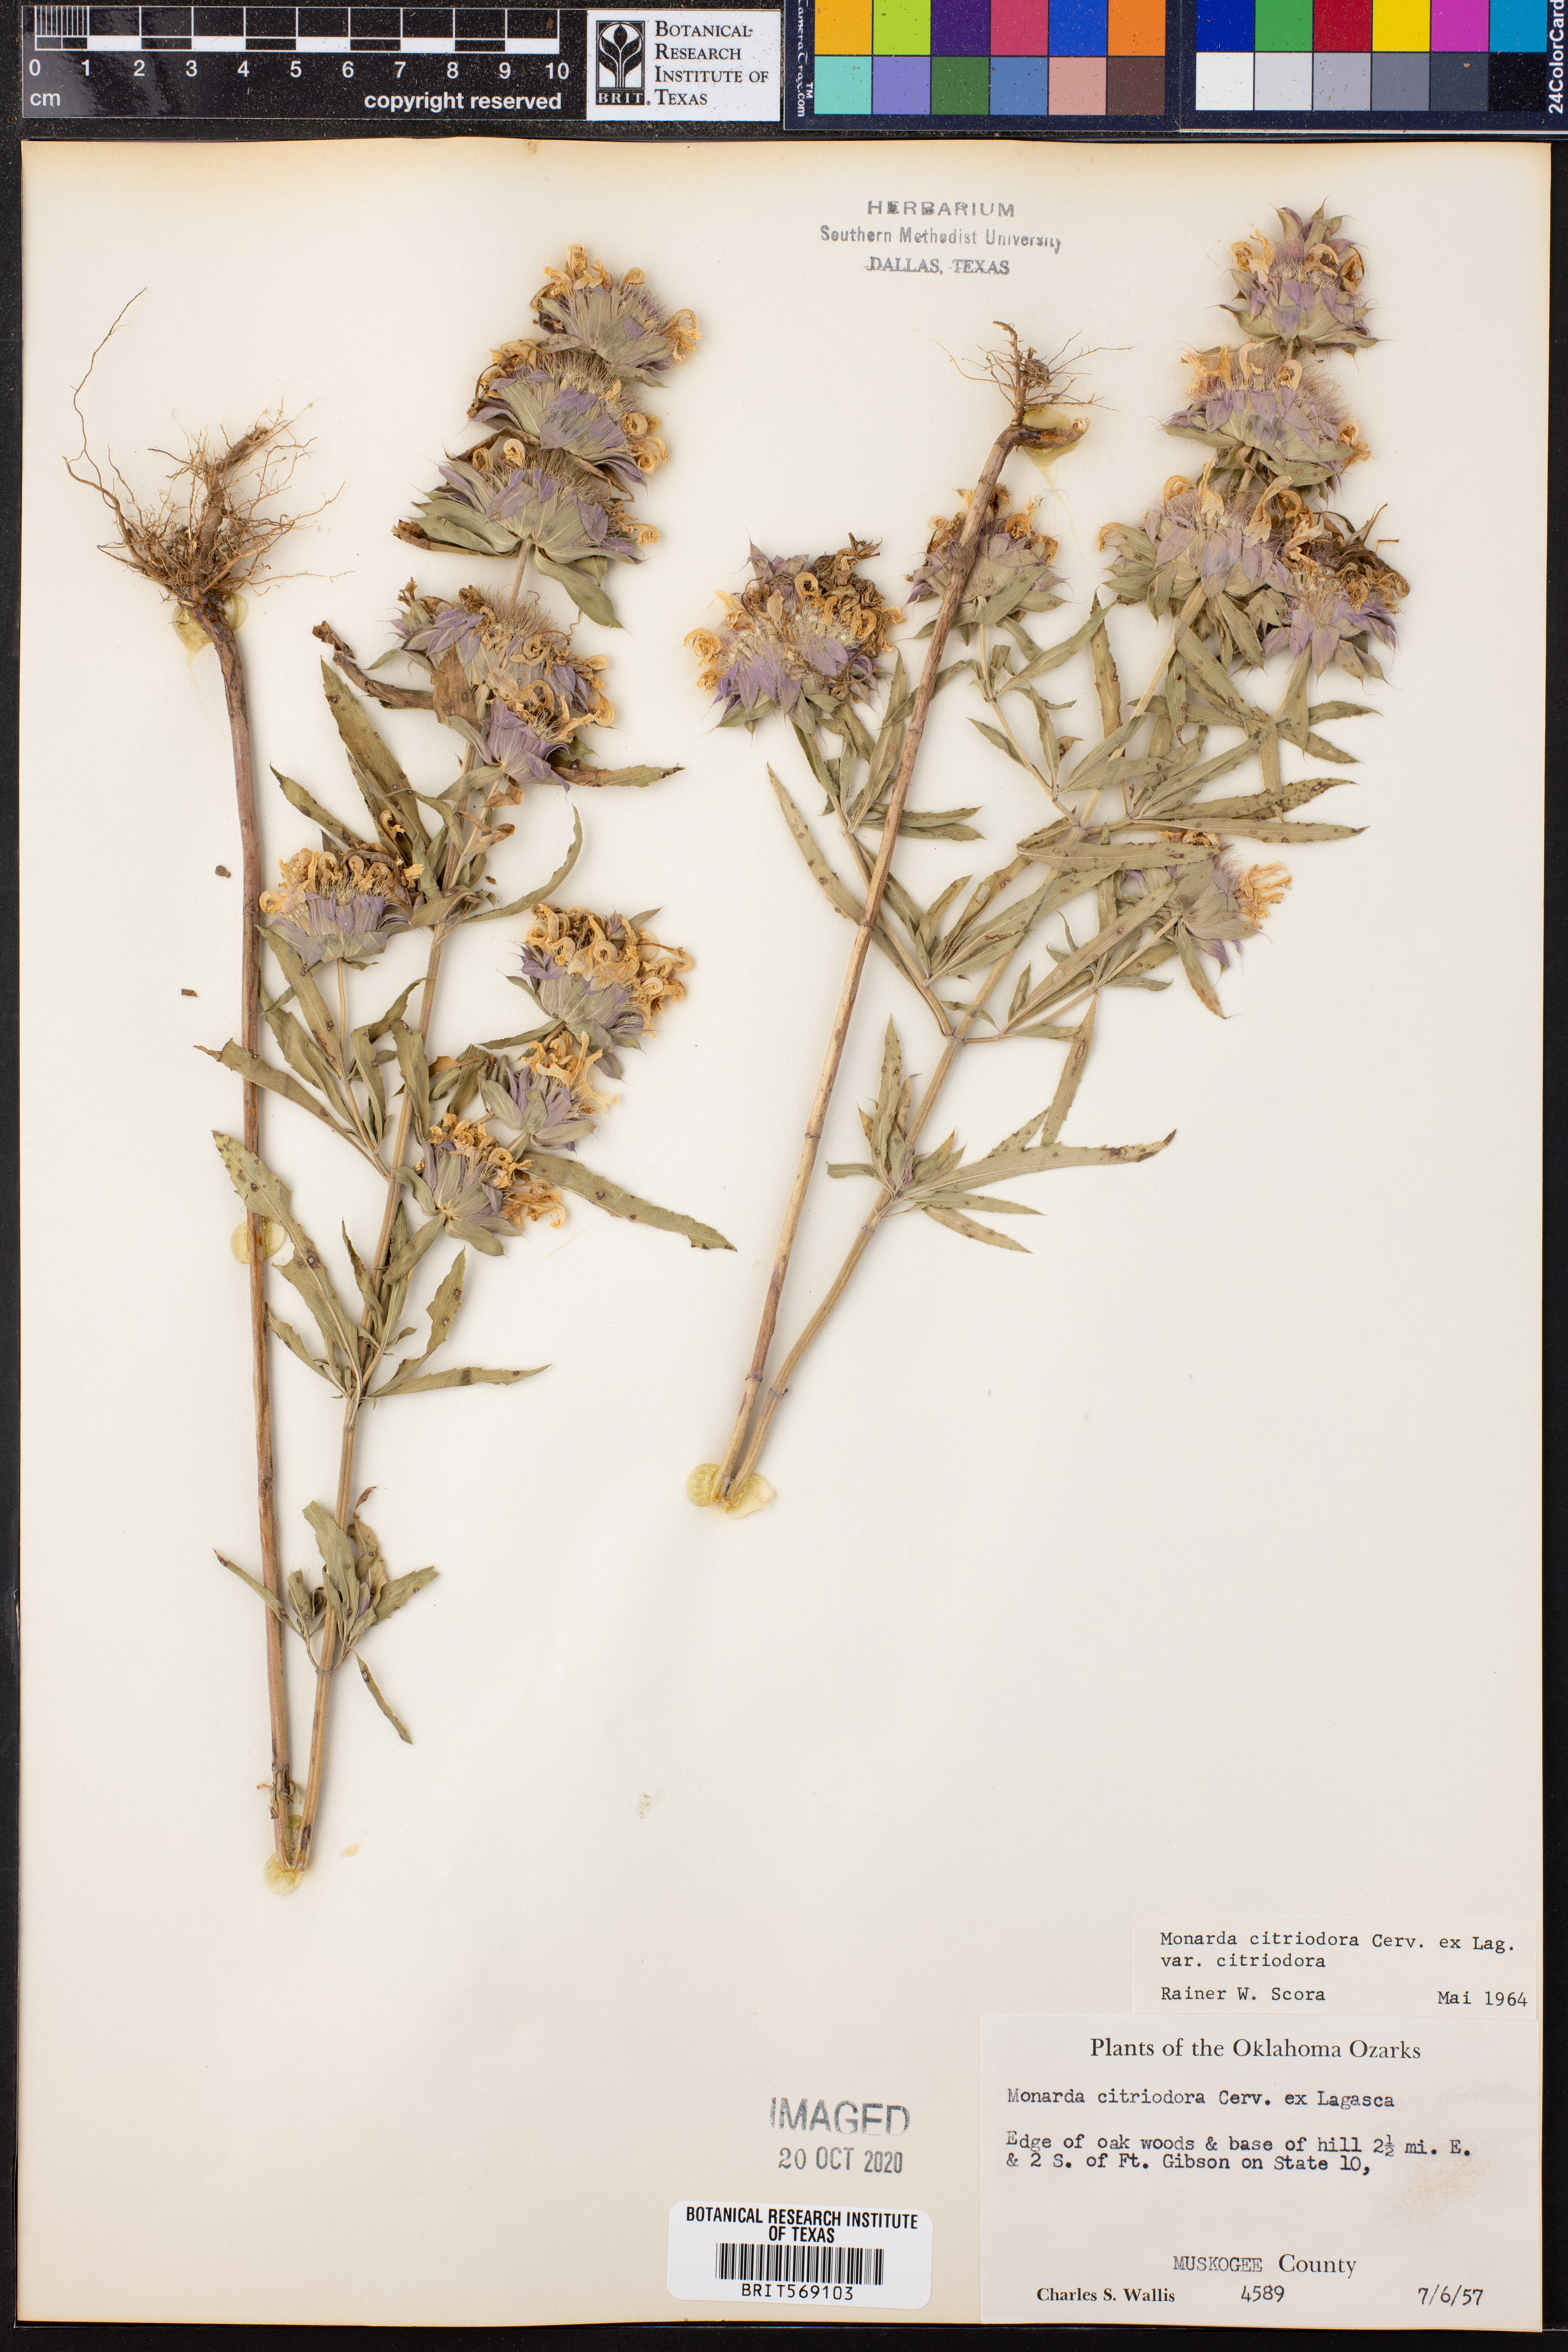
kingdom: Plantae
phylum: Tracheophyta
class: Magnoliopsida
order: Lamiales
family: Lamiaceae
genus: Monarda
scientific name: Monarda citriodora
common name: Lemon beebalm
